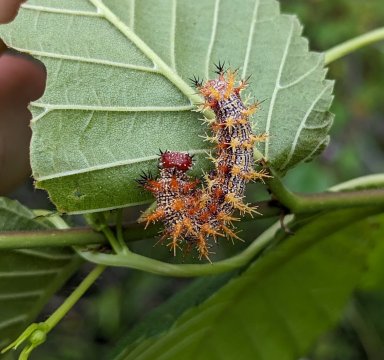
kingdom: Animalia
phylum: Arthropoda
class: Insecta
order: Lepidoptera
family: Nymphalidae
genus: Polygonia
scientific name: Polygonia interrogationis
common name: Question Mark
